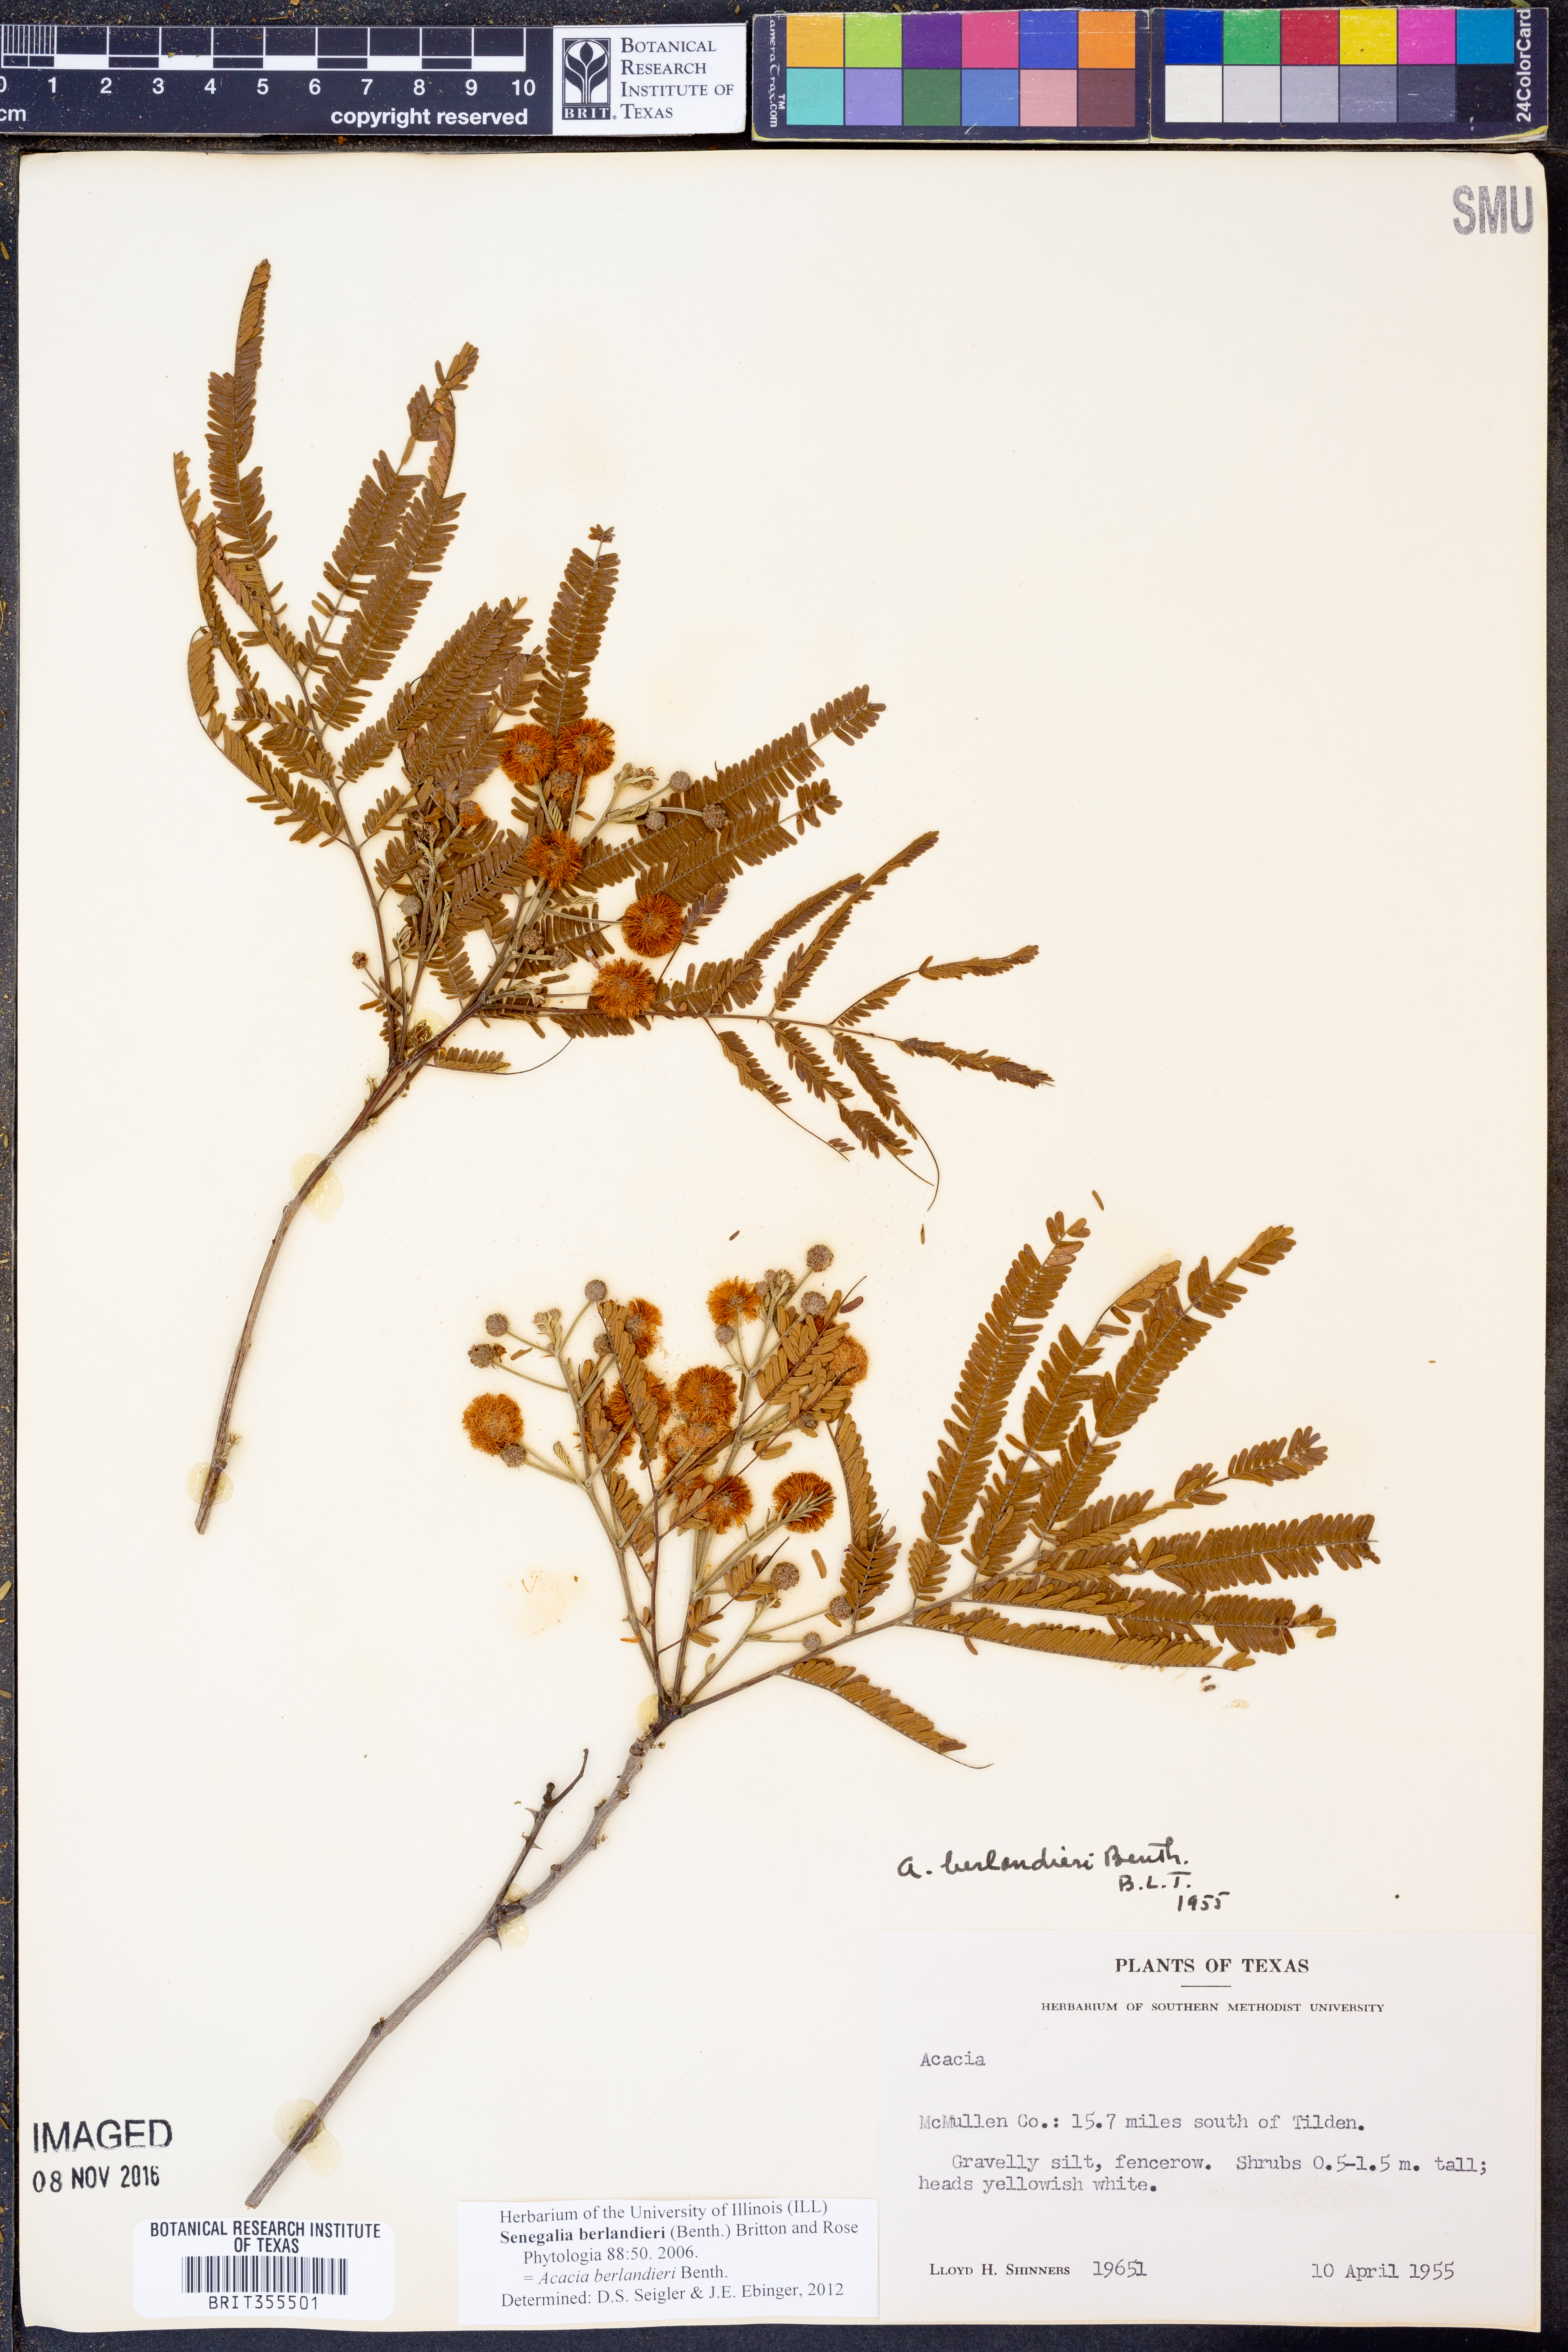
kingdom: Plantae
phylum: Tracheophyta
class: Magnoliopsida
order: Fabales
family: Fabaceae
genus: Senegalia
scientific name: Senegalia berlandieri
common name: Berlandier acacia
